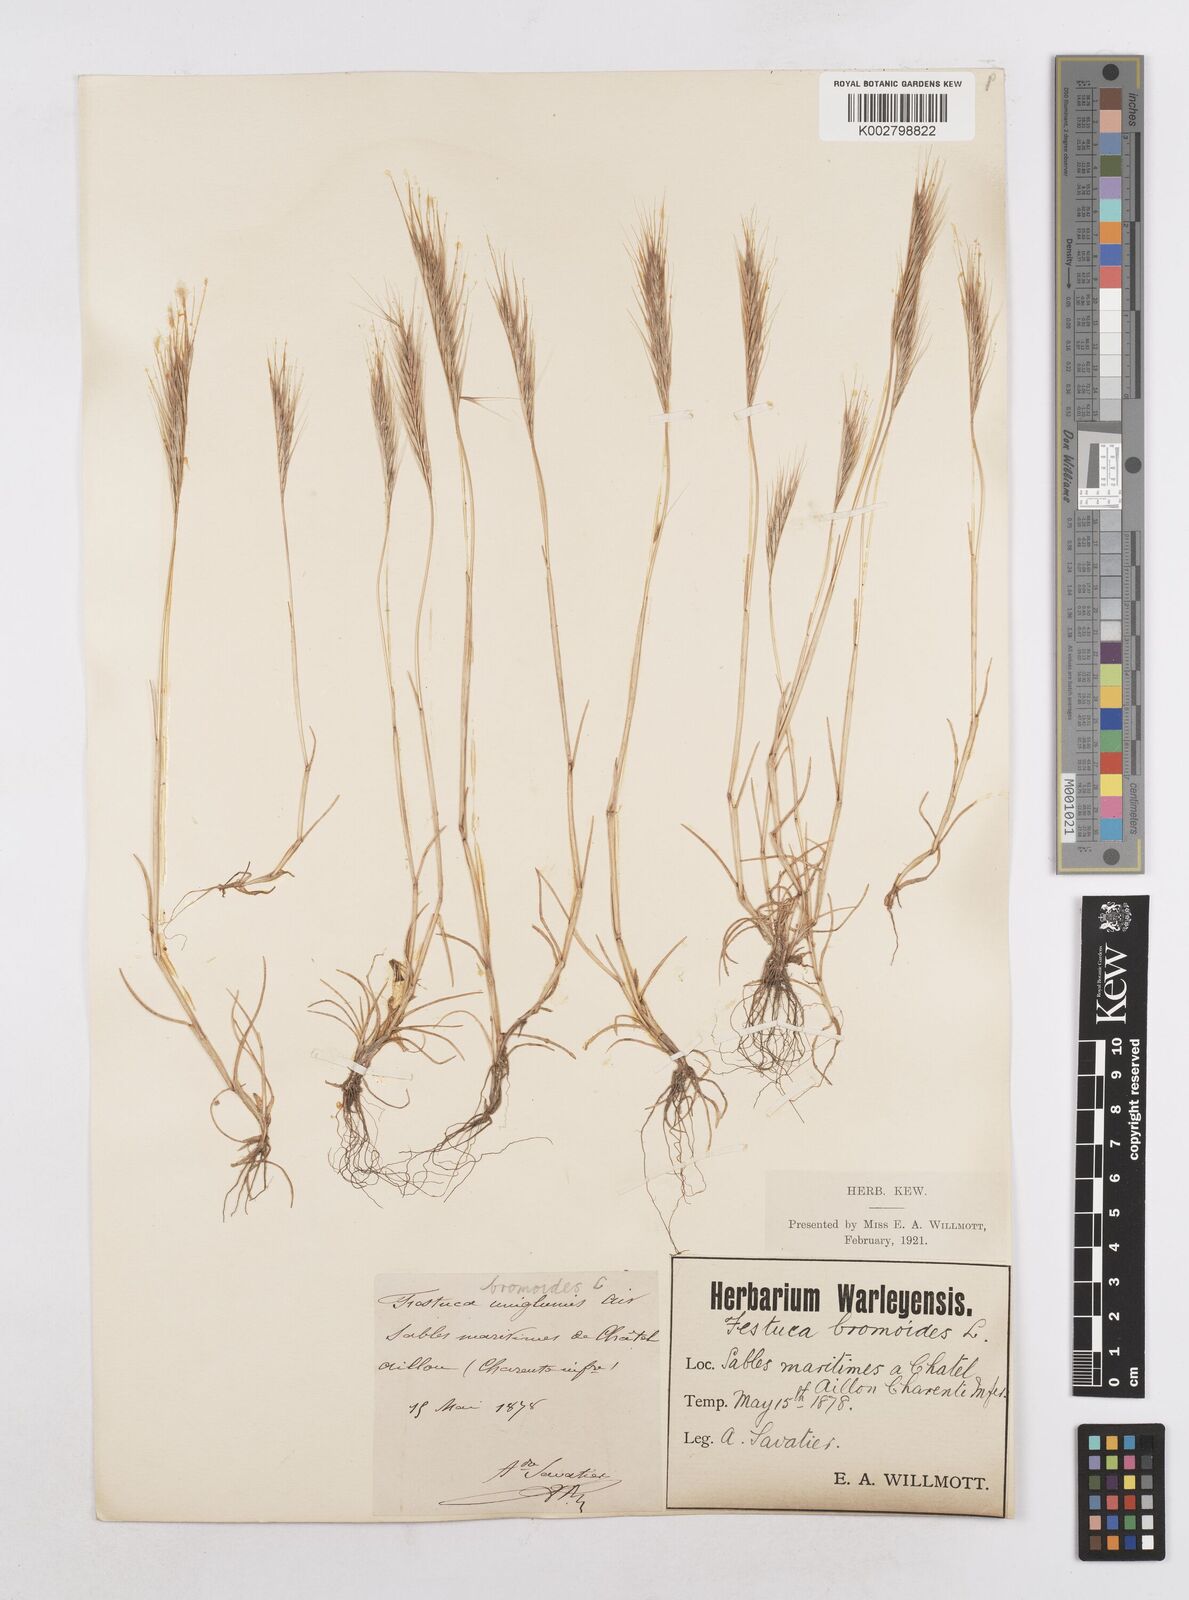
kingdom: Plantae
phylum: Tracheophyta
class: Liliopsida
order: Poales
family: Poaceae
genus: Festuca
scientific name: Festuca membranacea
